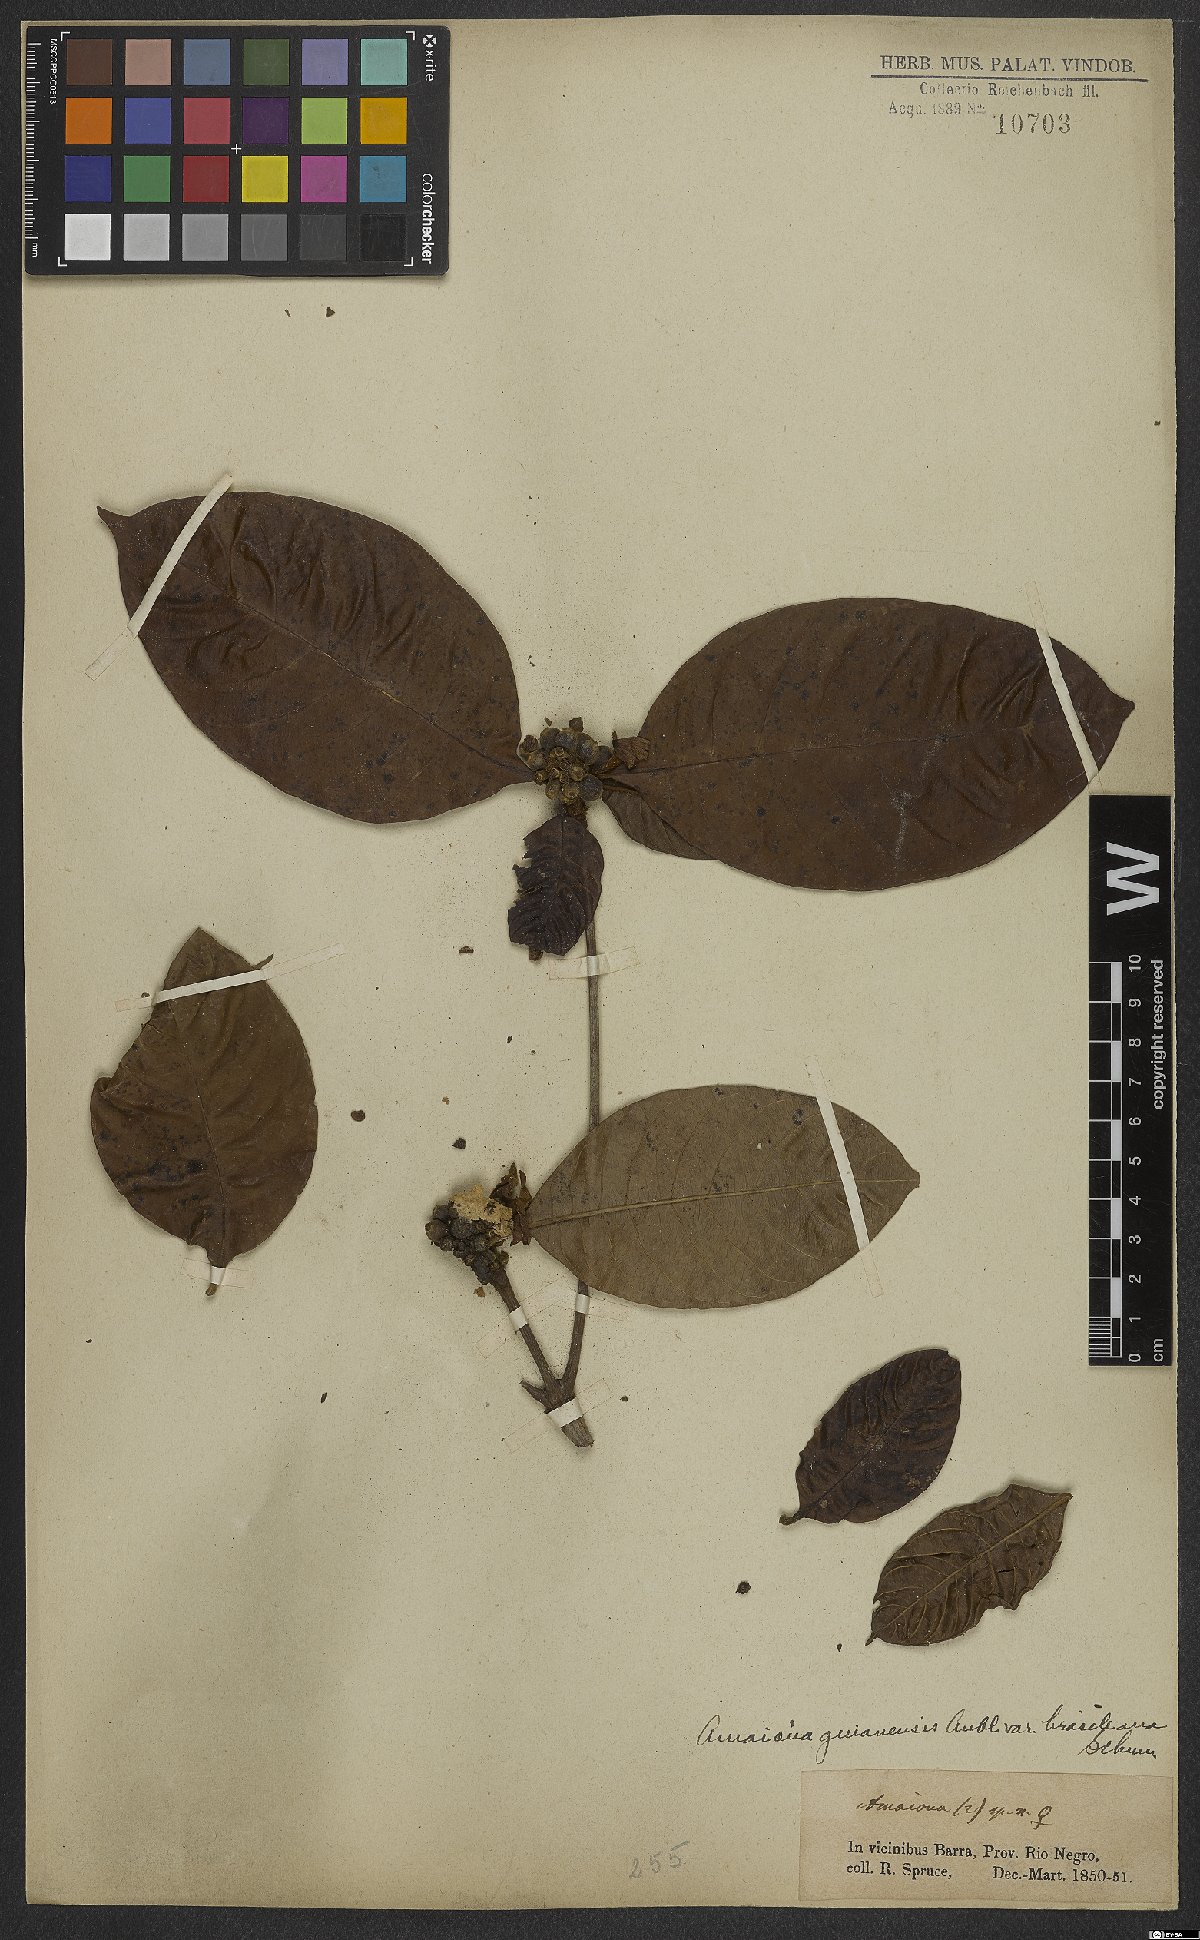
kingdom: Plantae
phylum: Tracheophyta
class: Magnoliopsida
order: Gentianales
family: Rubiaceae
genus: Amaioua
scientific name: Amaioua guianensis
